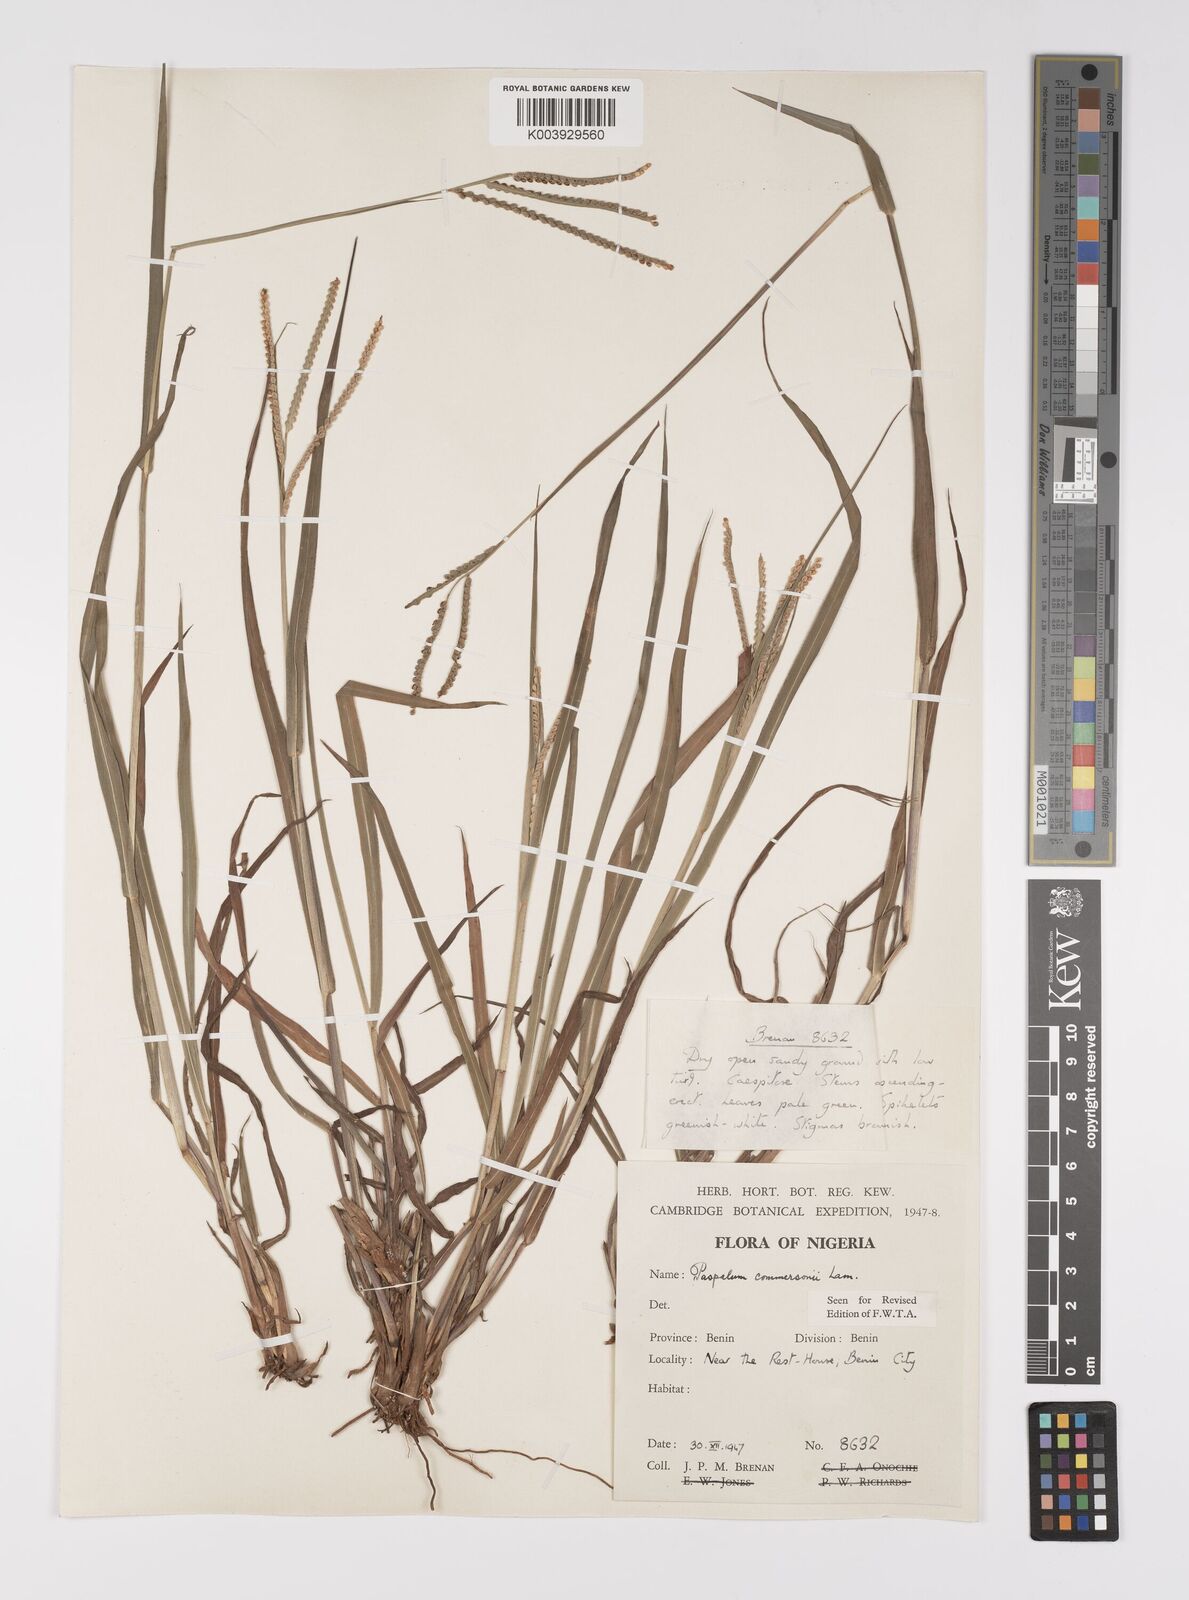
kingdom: Plantae
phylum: Tracheophyta
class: Liliopsida
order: Poales
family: Poaceae
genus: Paspalum
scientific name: Paspalum scrobiculatum
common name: Kodo millet
